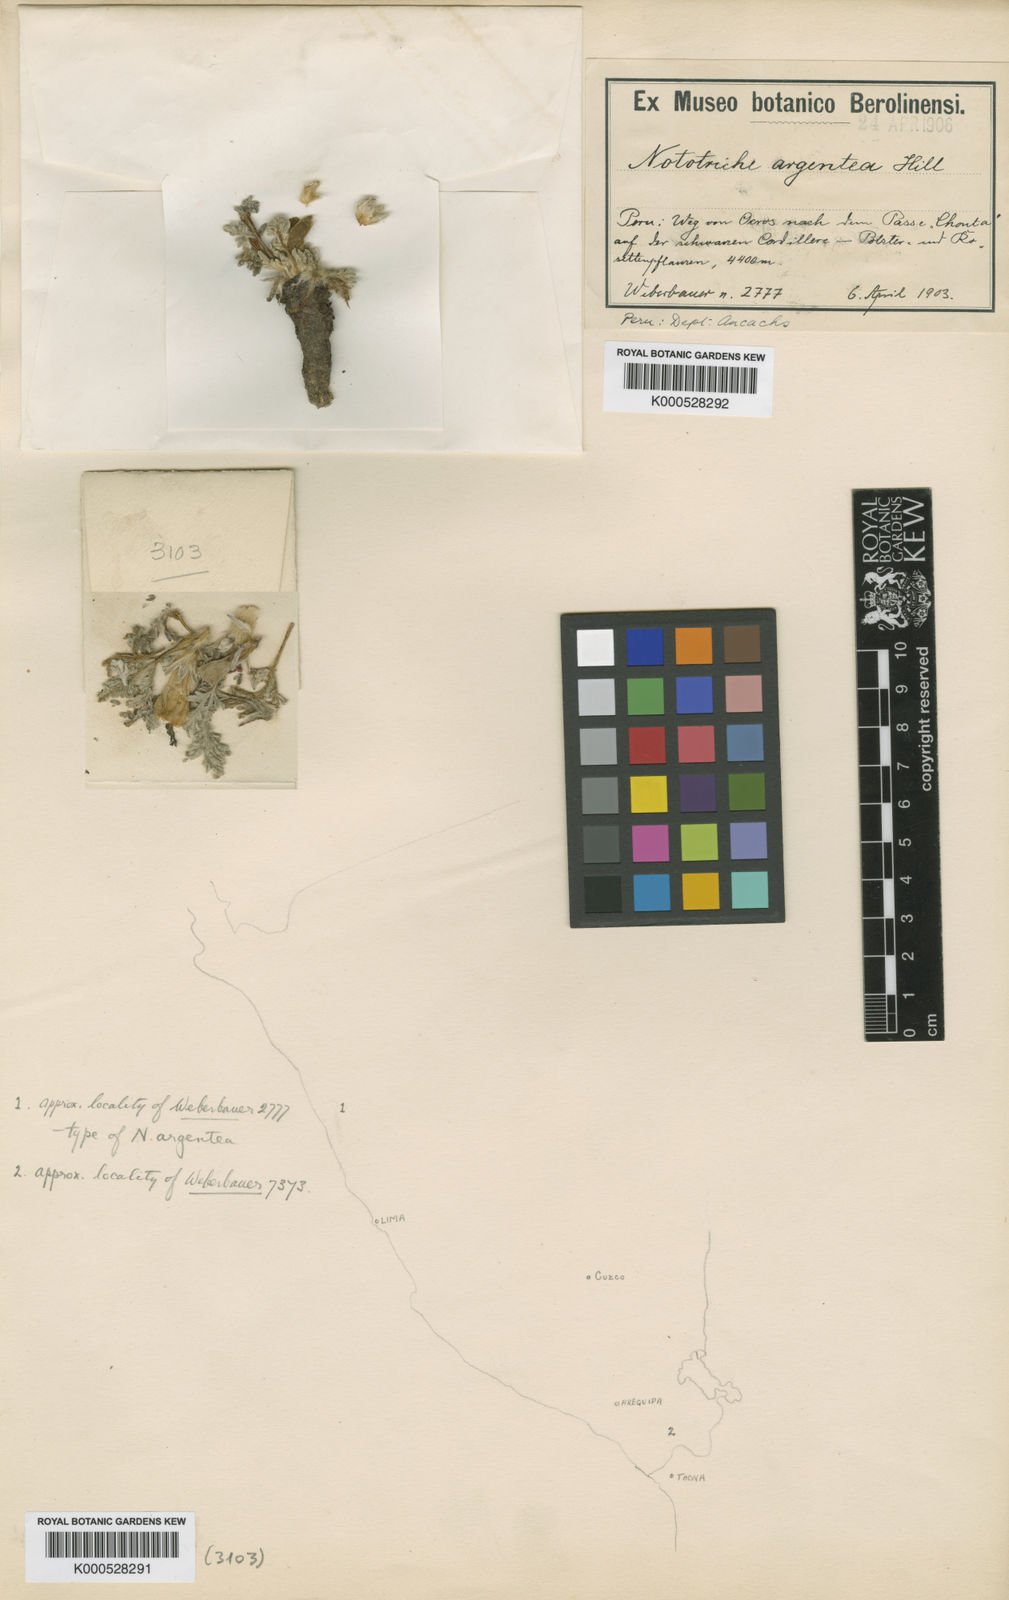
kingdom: Plantae
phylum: Tracheophyta
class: Magnoliopsida
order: Malvales
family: Malvaceae
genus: Nototriche
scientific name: Nototriche argentea
